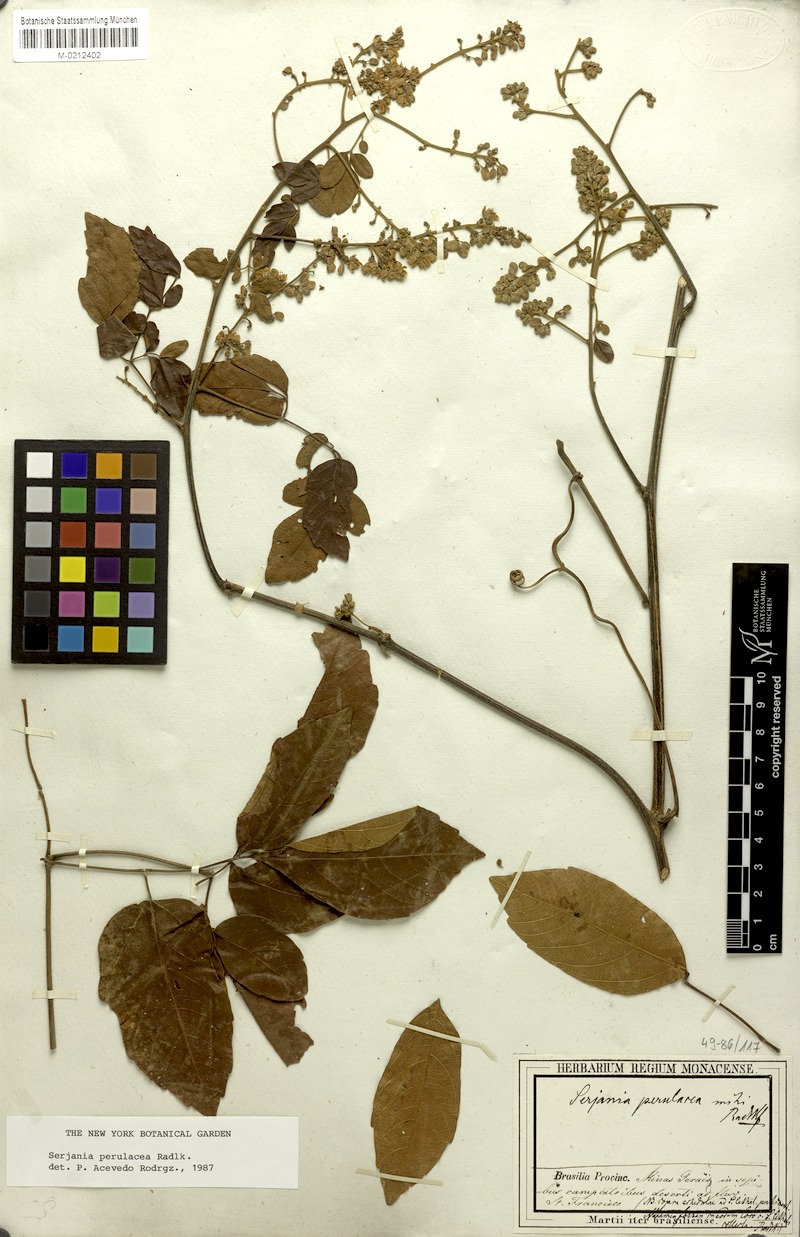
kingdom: Plantae
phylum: Tracheophyta
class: Magnoliopsida
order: Sapindales
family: Sapindaceae
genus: Serjania
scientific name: Serjania perulacea
